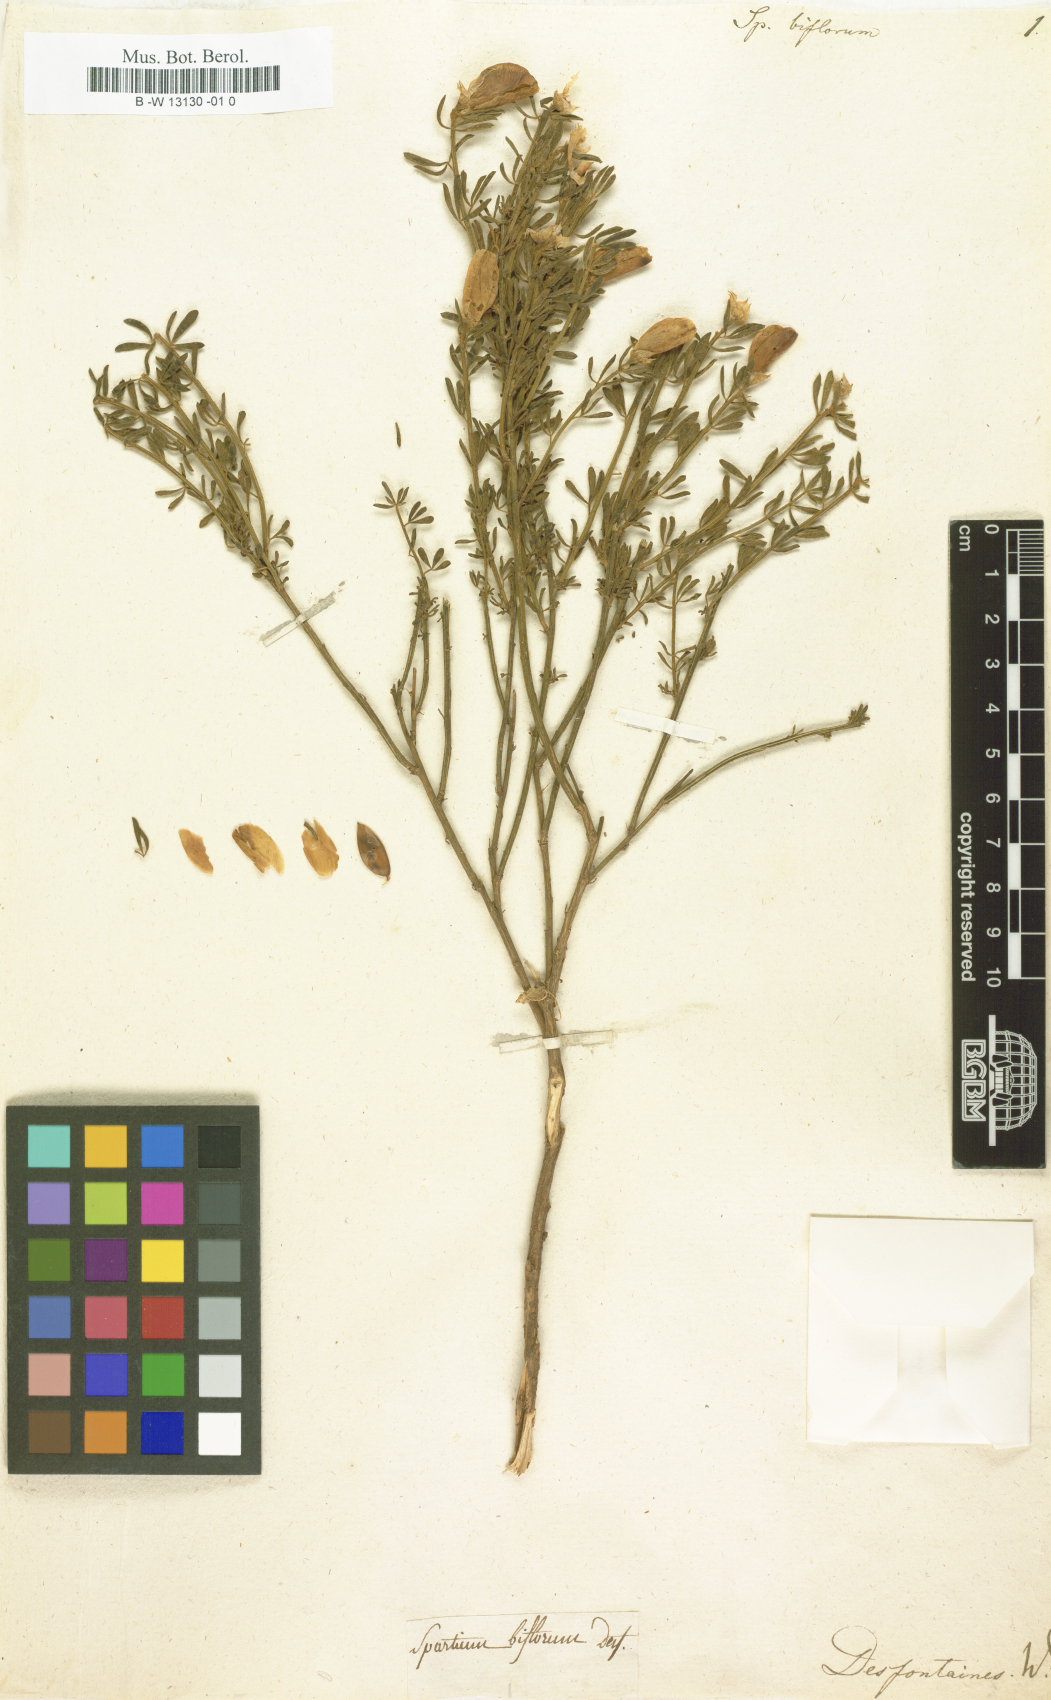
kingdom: Plantae
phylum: Tracheophyta
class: Magnoliopsida
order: Fabales
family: Fabaceae
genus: Cytisus
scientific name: Cytisus fontanesii
